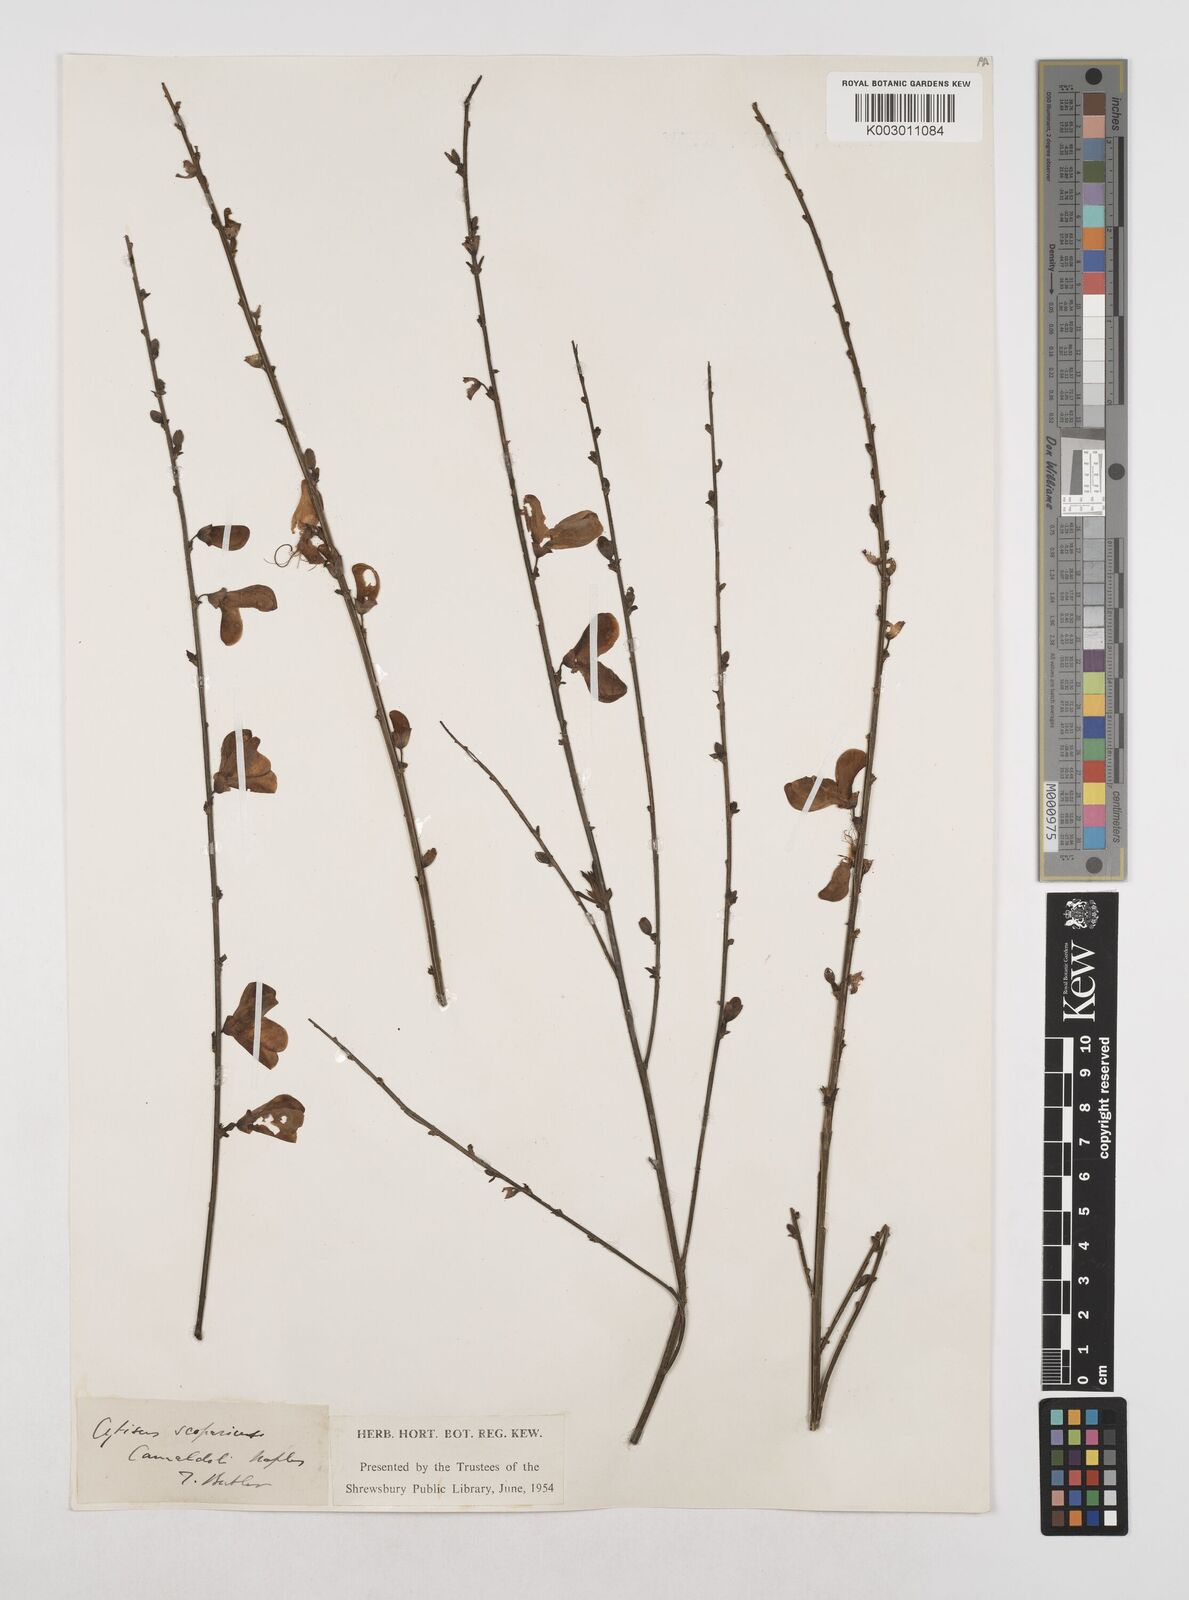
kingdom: Plantae
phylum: Tracheophyta
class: Magnoliopsida
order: Fabales
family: Fabaceae
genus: Cytisus
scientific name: Cytisus scoparius
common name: Scotch broom
